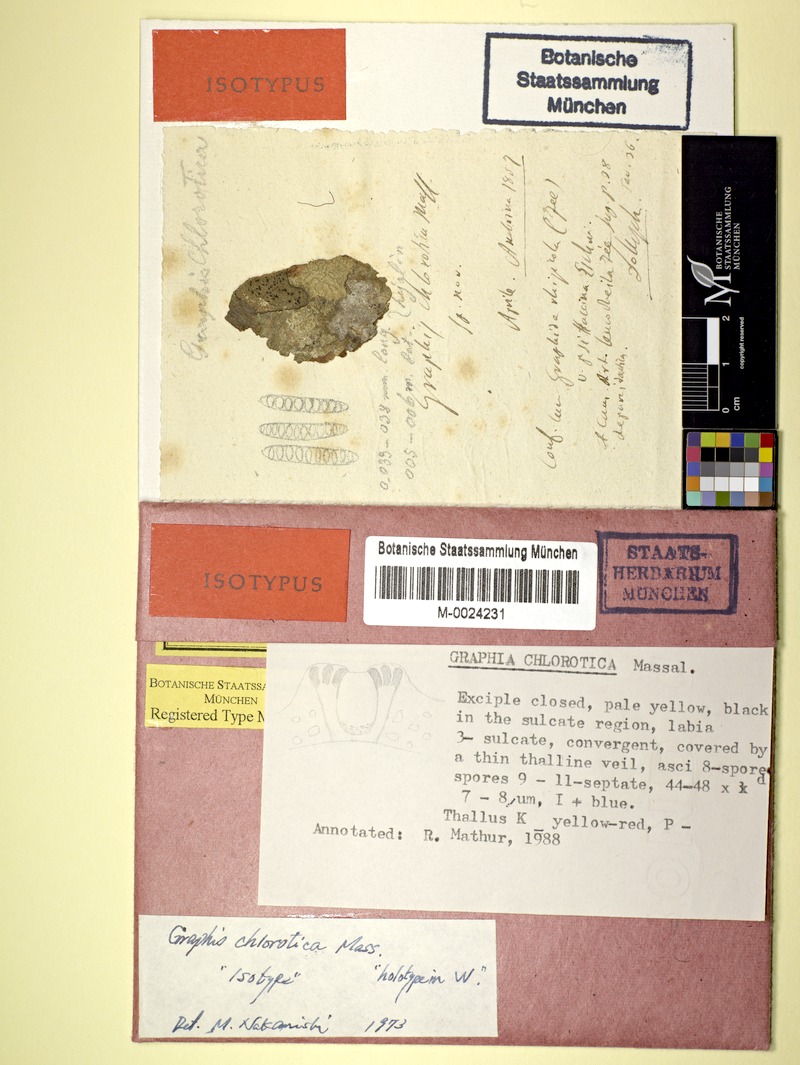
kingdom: Fungi
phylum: Ascomycota
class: Lecanoromycetes
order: Ostropales
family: Graphidaceae
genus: Graphis
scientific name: Graphis chlorotica
